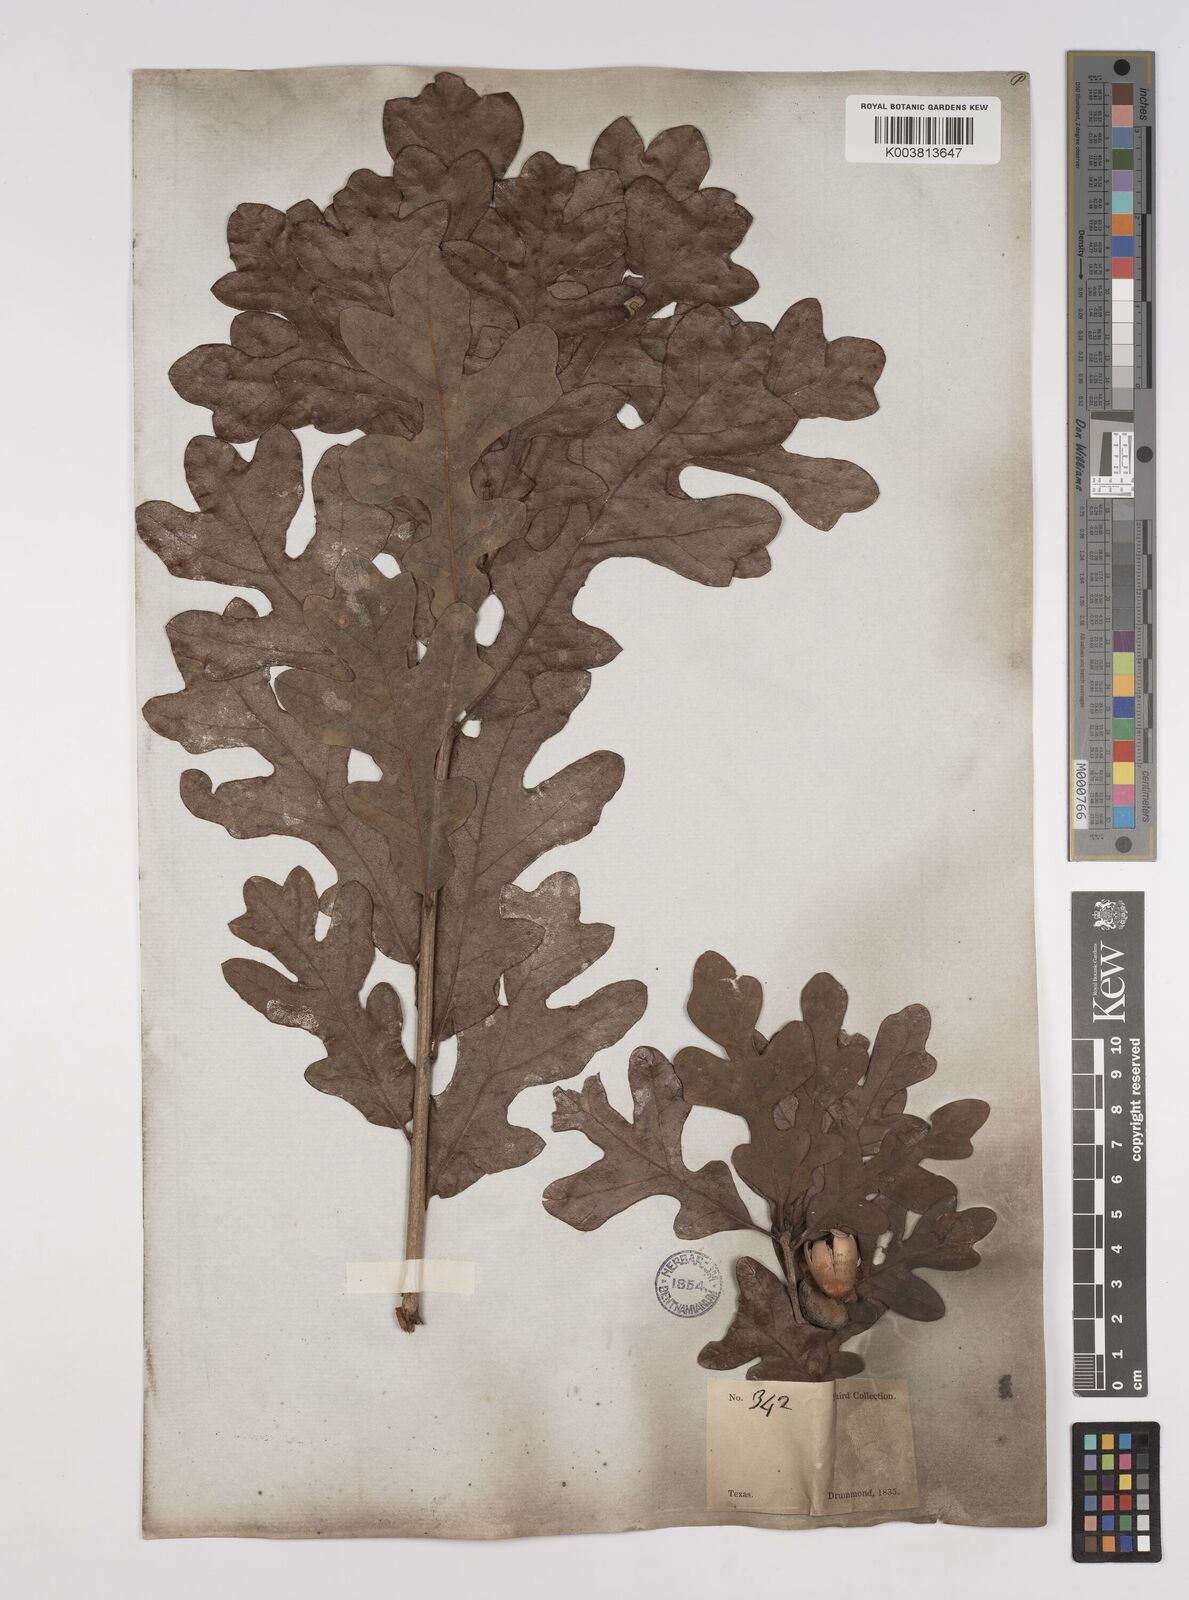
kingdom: Plantae
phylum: Tracheophyta
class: Magnoliopsida
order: Fagales
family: Fagaceae
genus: Quercus
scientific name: Quercus stellata
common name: Post oak
